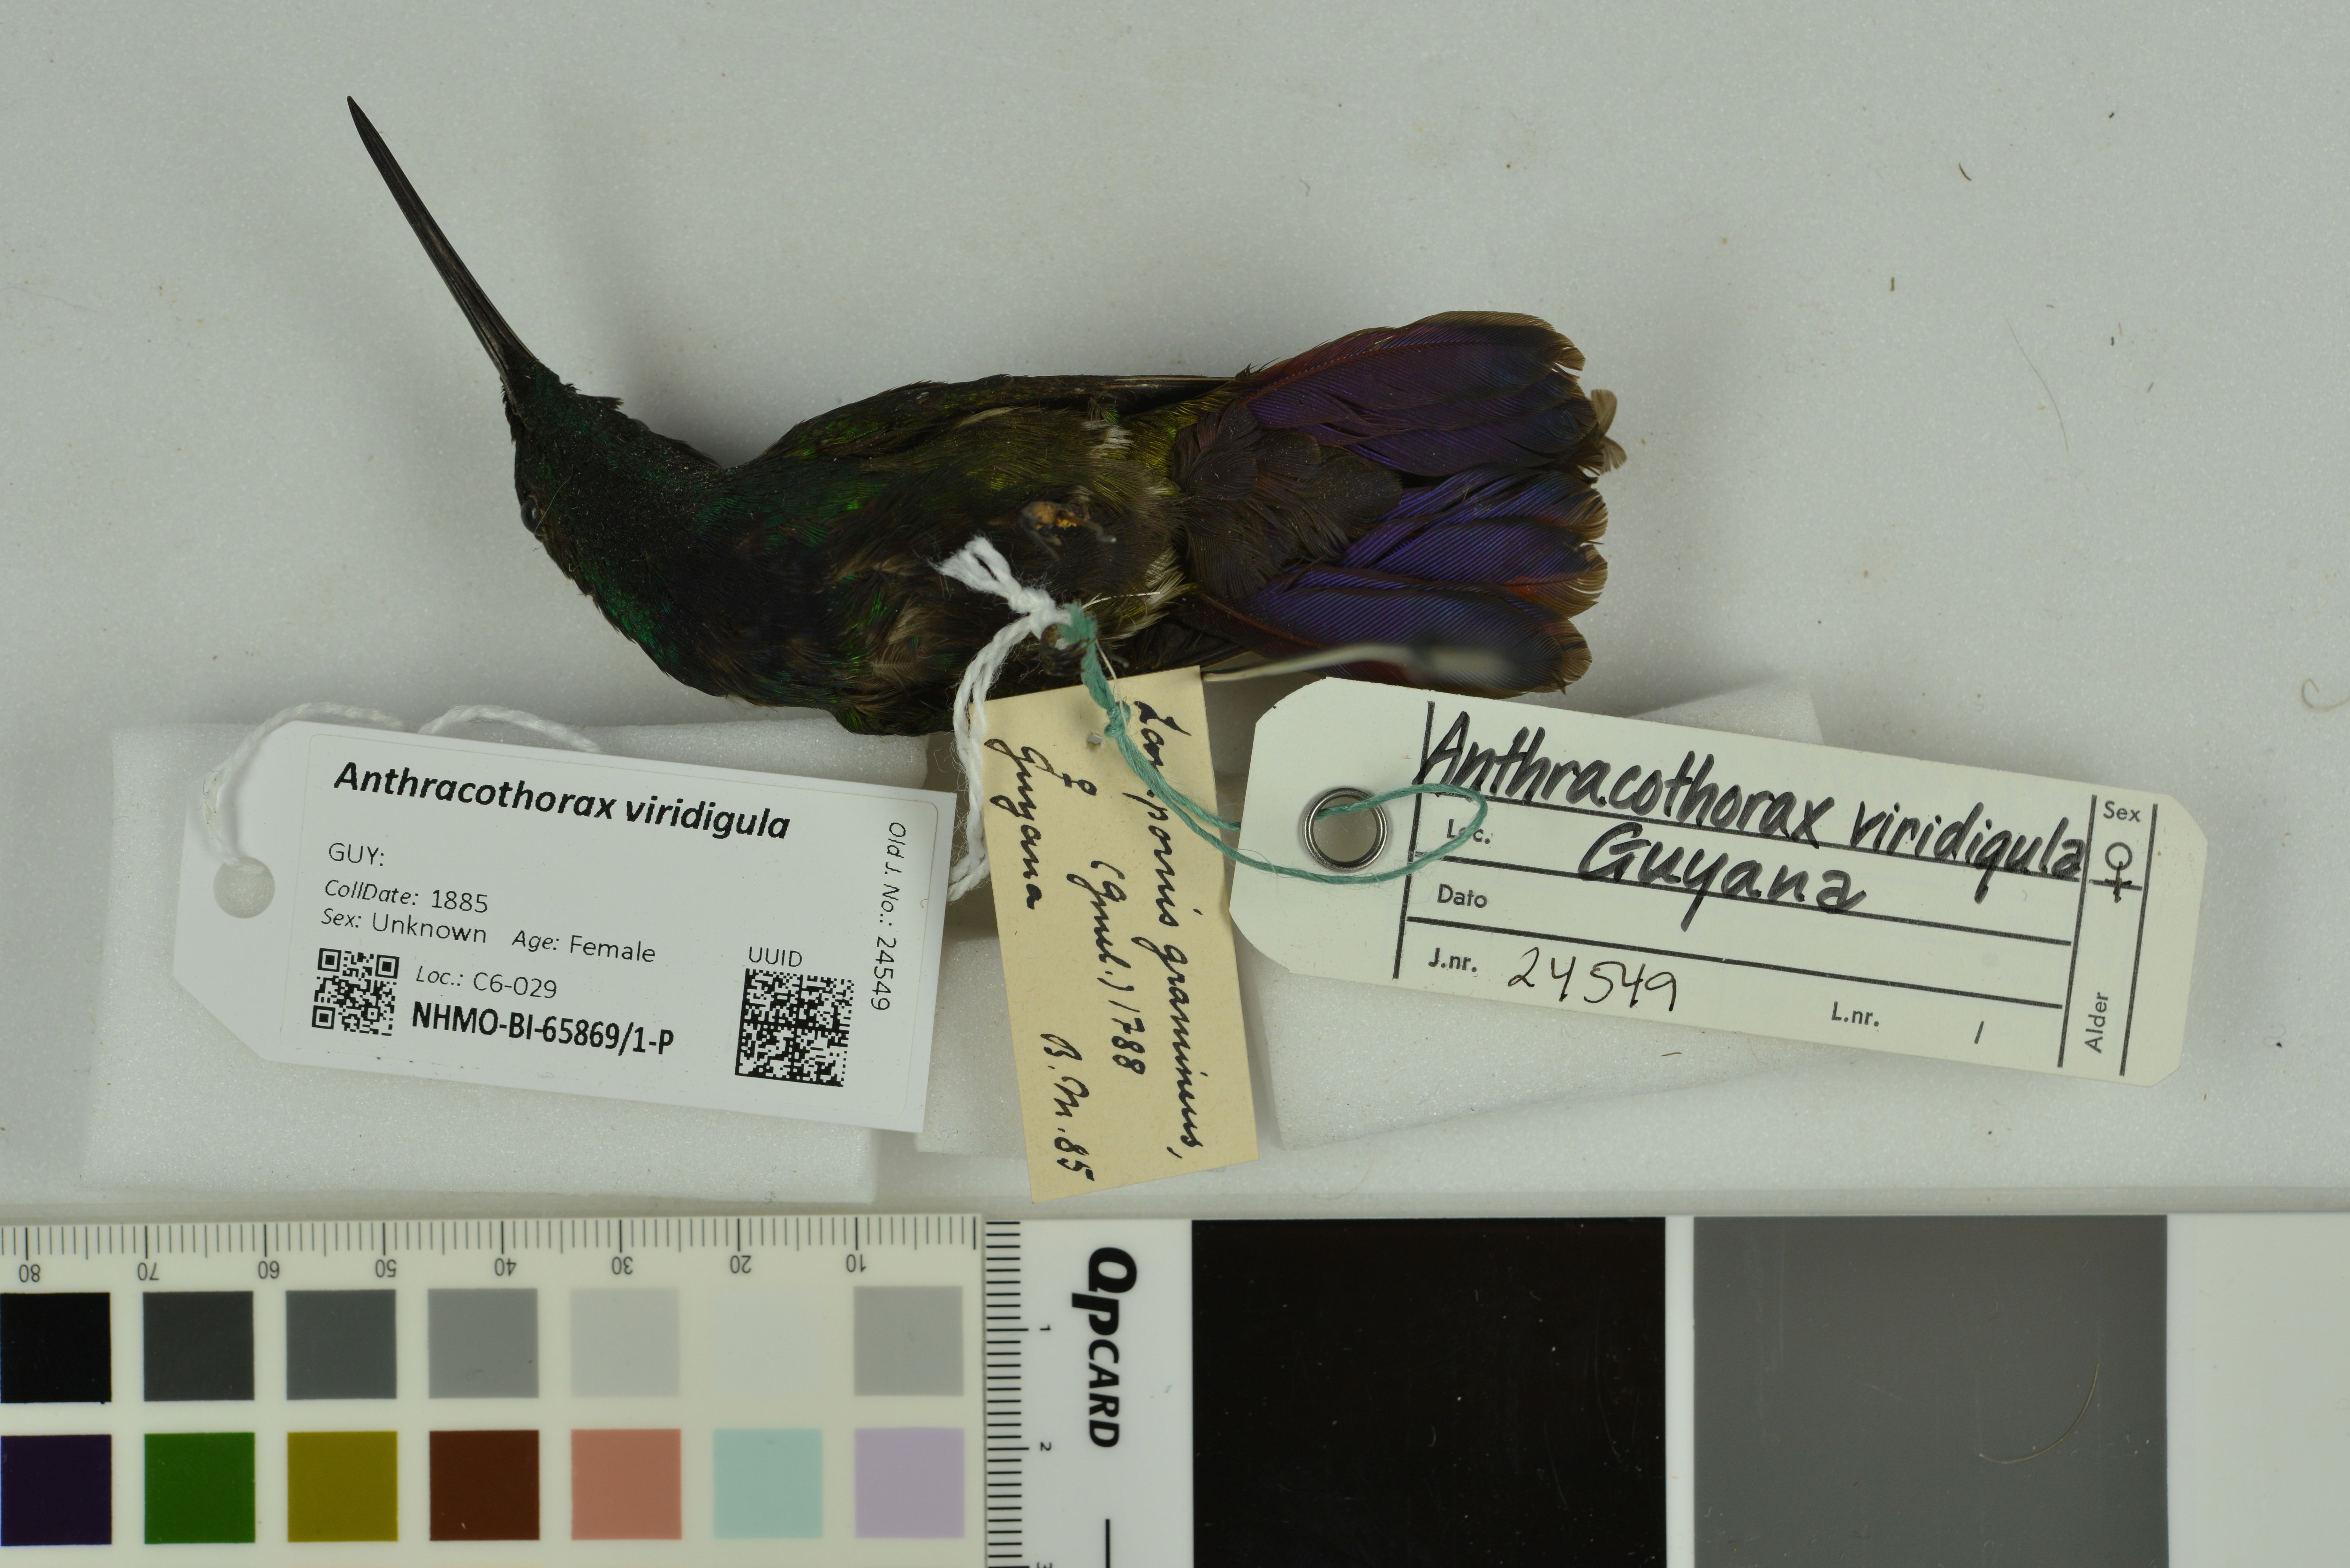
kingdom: Animalia
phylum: Chordata
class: Aves
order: Apodiformes
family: Trochilidae
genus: Anthracothorax
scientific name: Anthracothorax viridigula
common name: Green-throated mango
